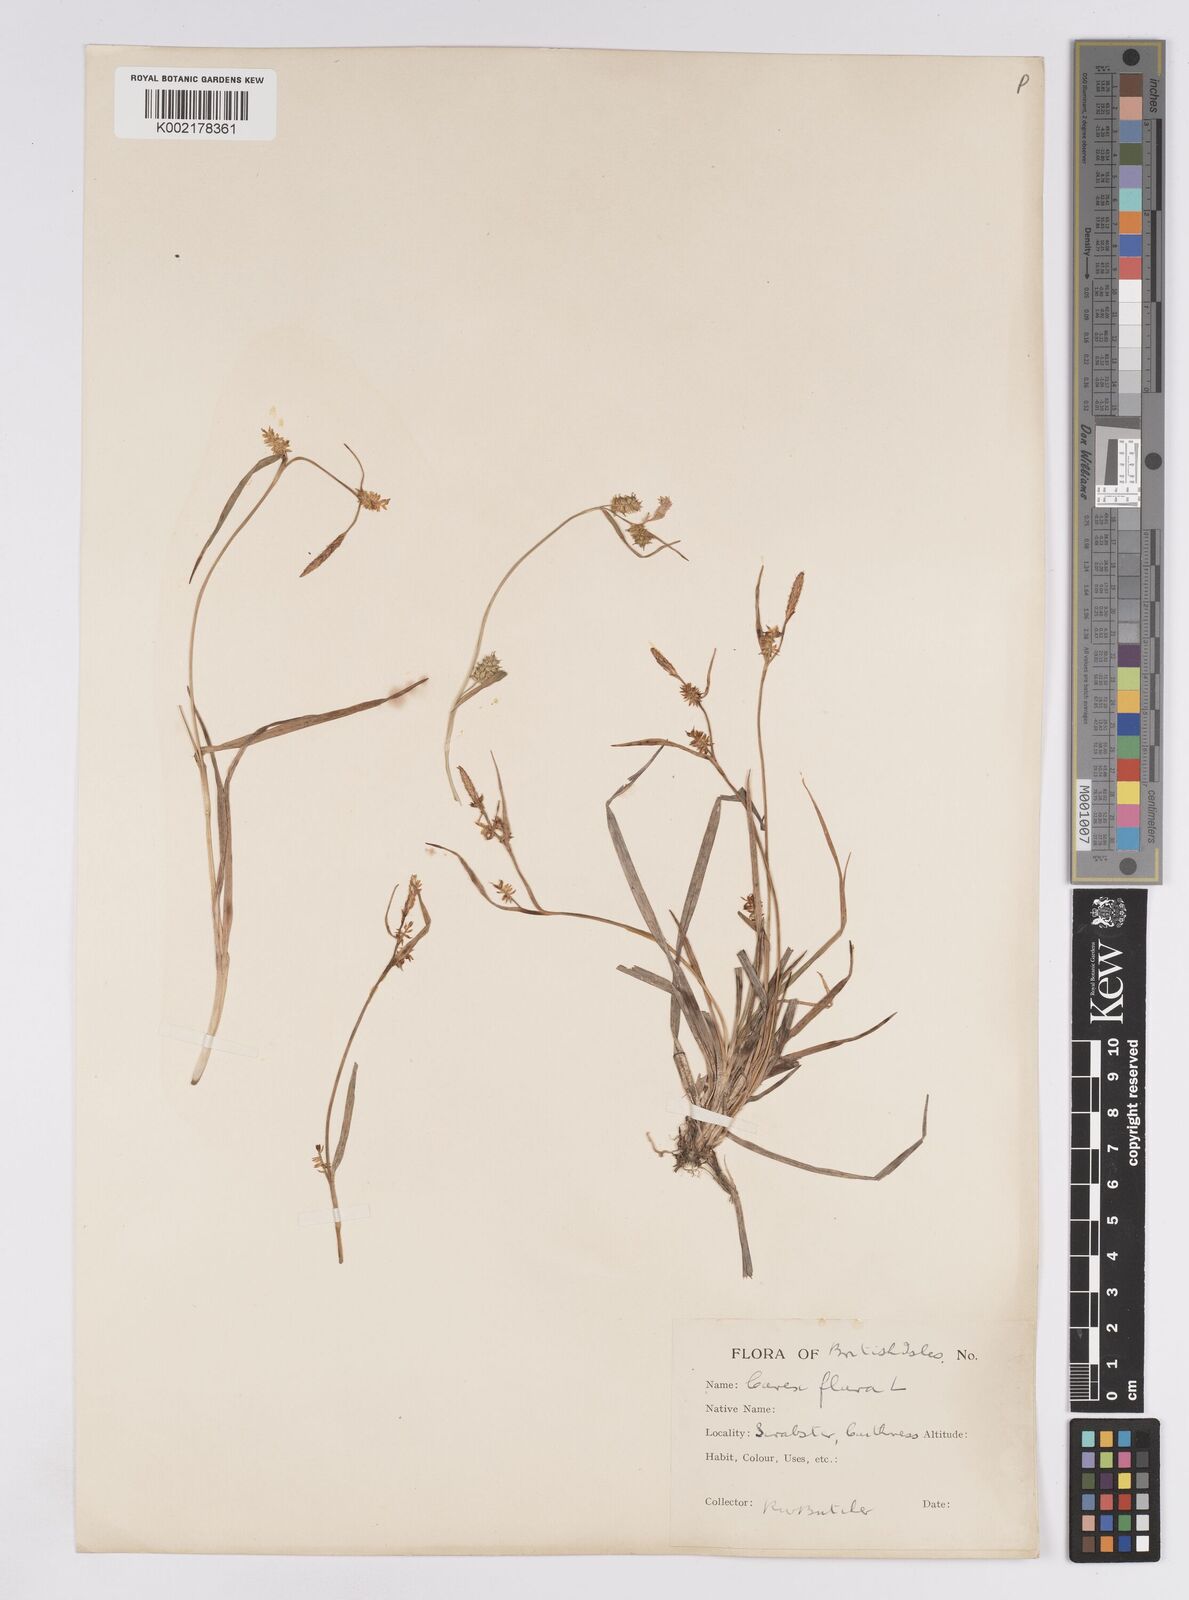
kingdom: Plantae
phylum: Tracheophyta
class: Liliopsida
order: Poales
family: Cyperaceae
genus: Carex
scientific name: Carex demissa
